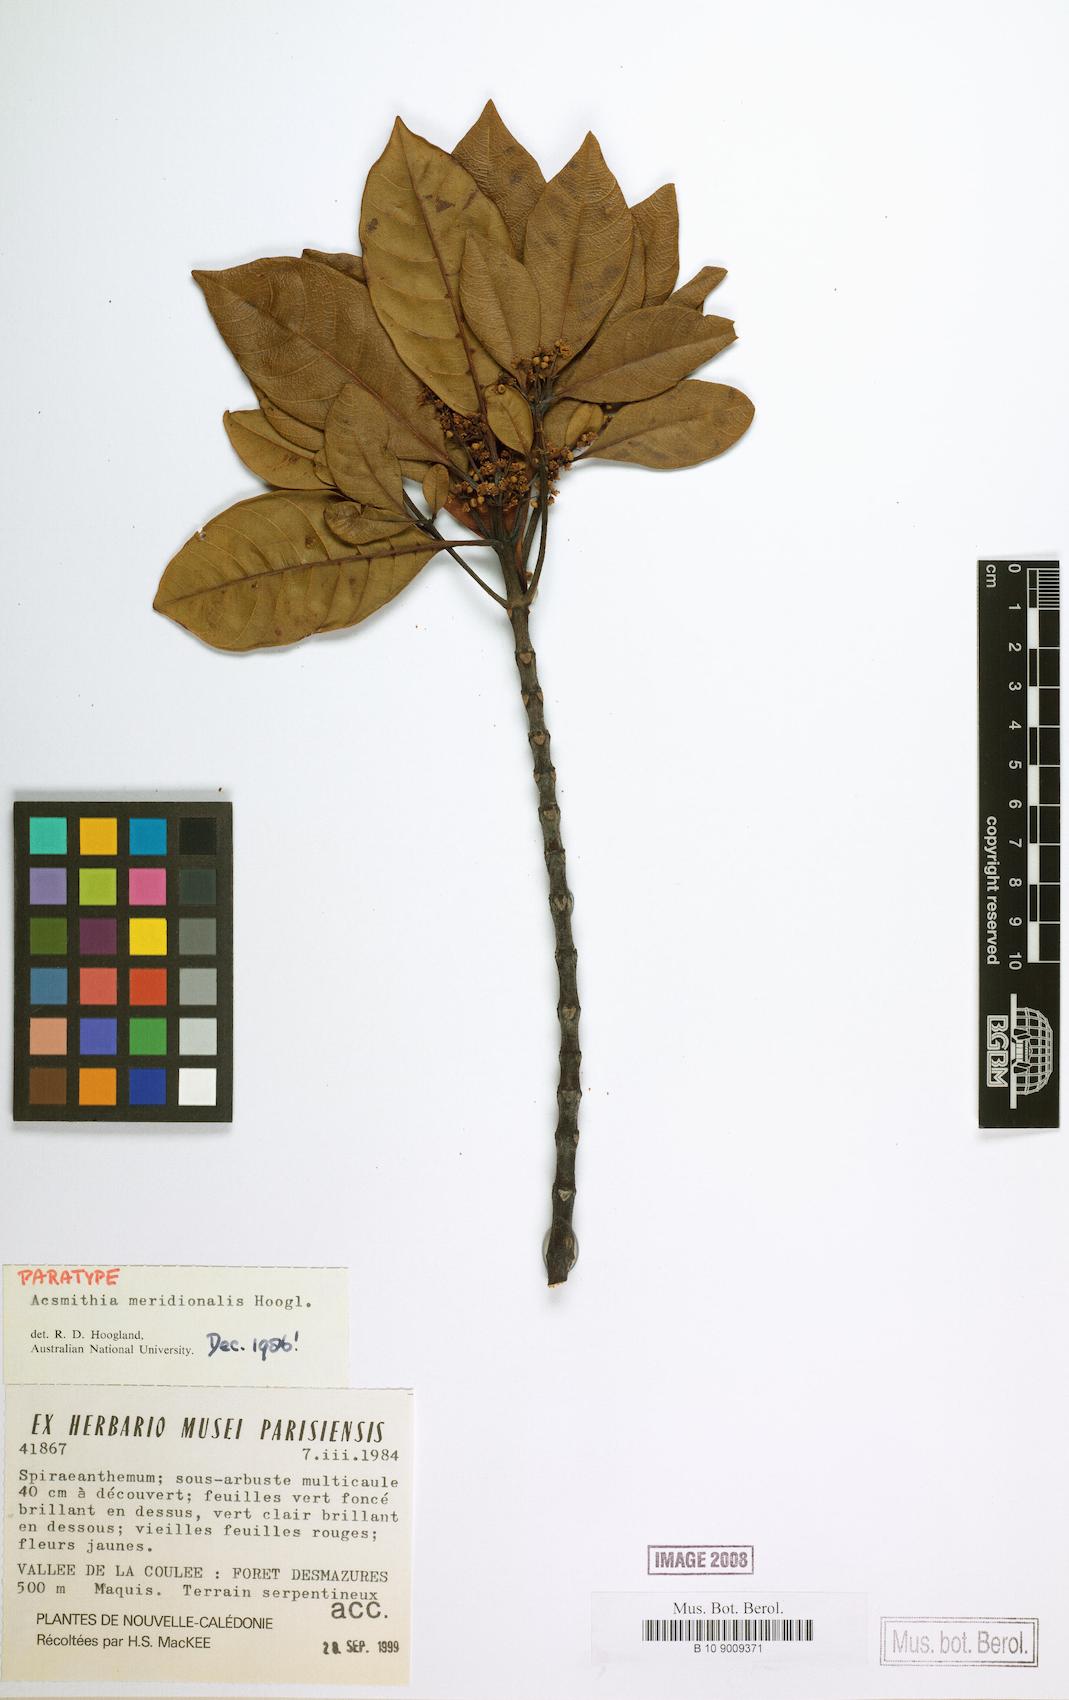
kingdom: Plantae
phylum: Tracheophyta
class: Magnoliopsida
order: Oxalidales
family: Cunoniaceae
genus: Spiraeanthemum
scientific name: Spiraeanthemum meridionale
